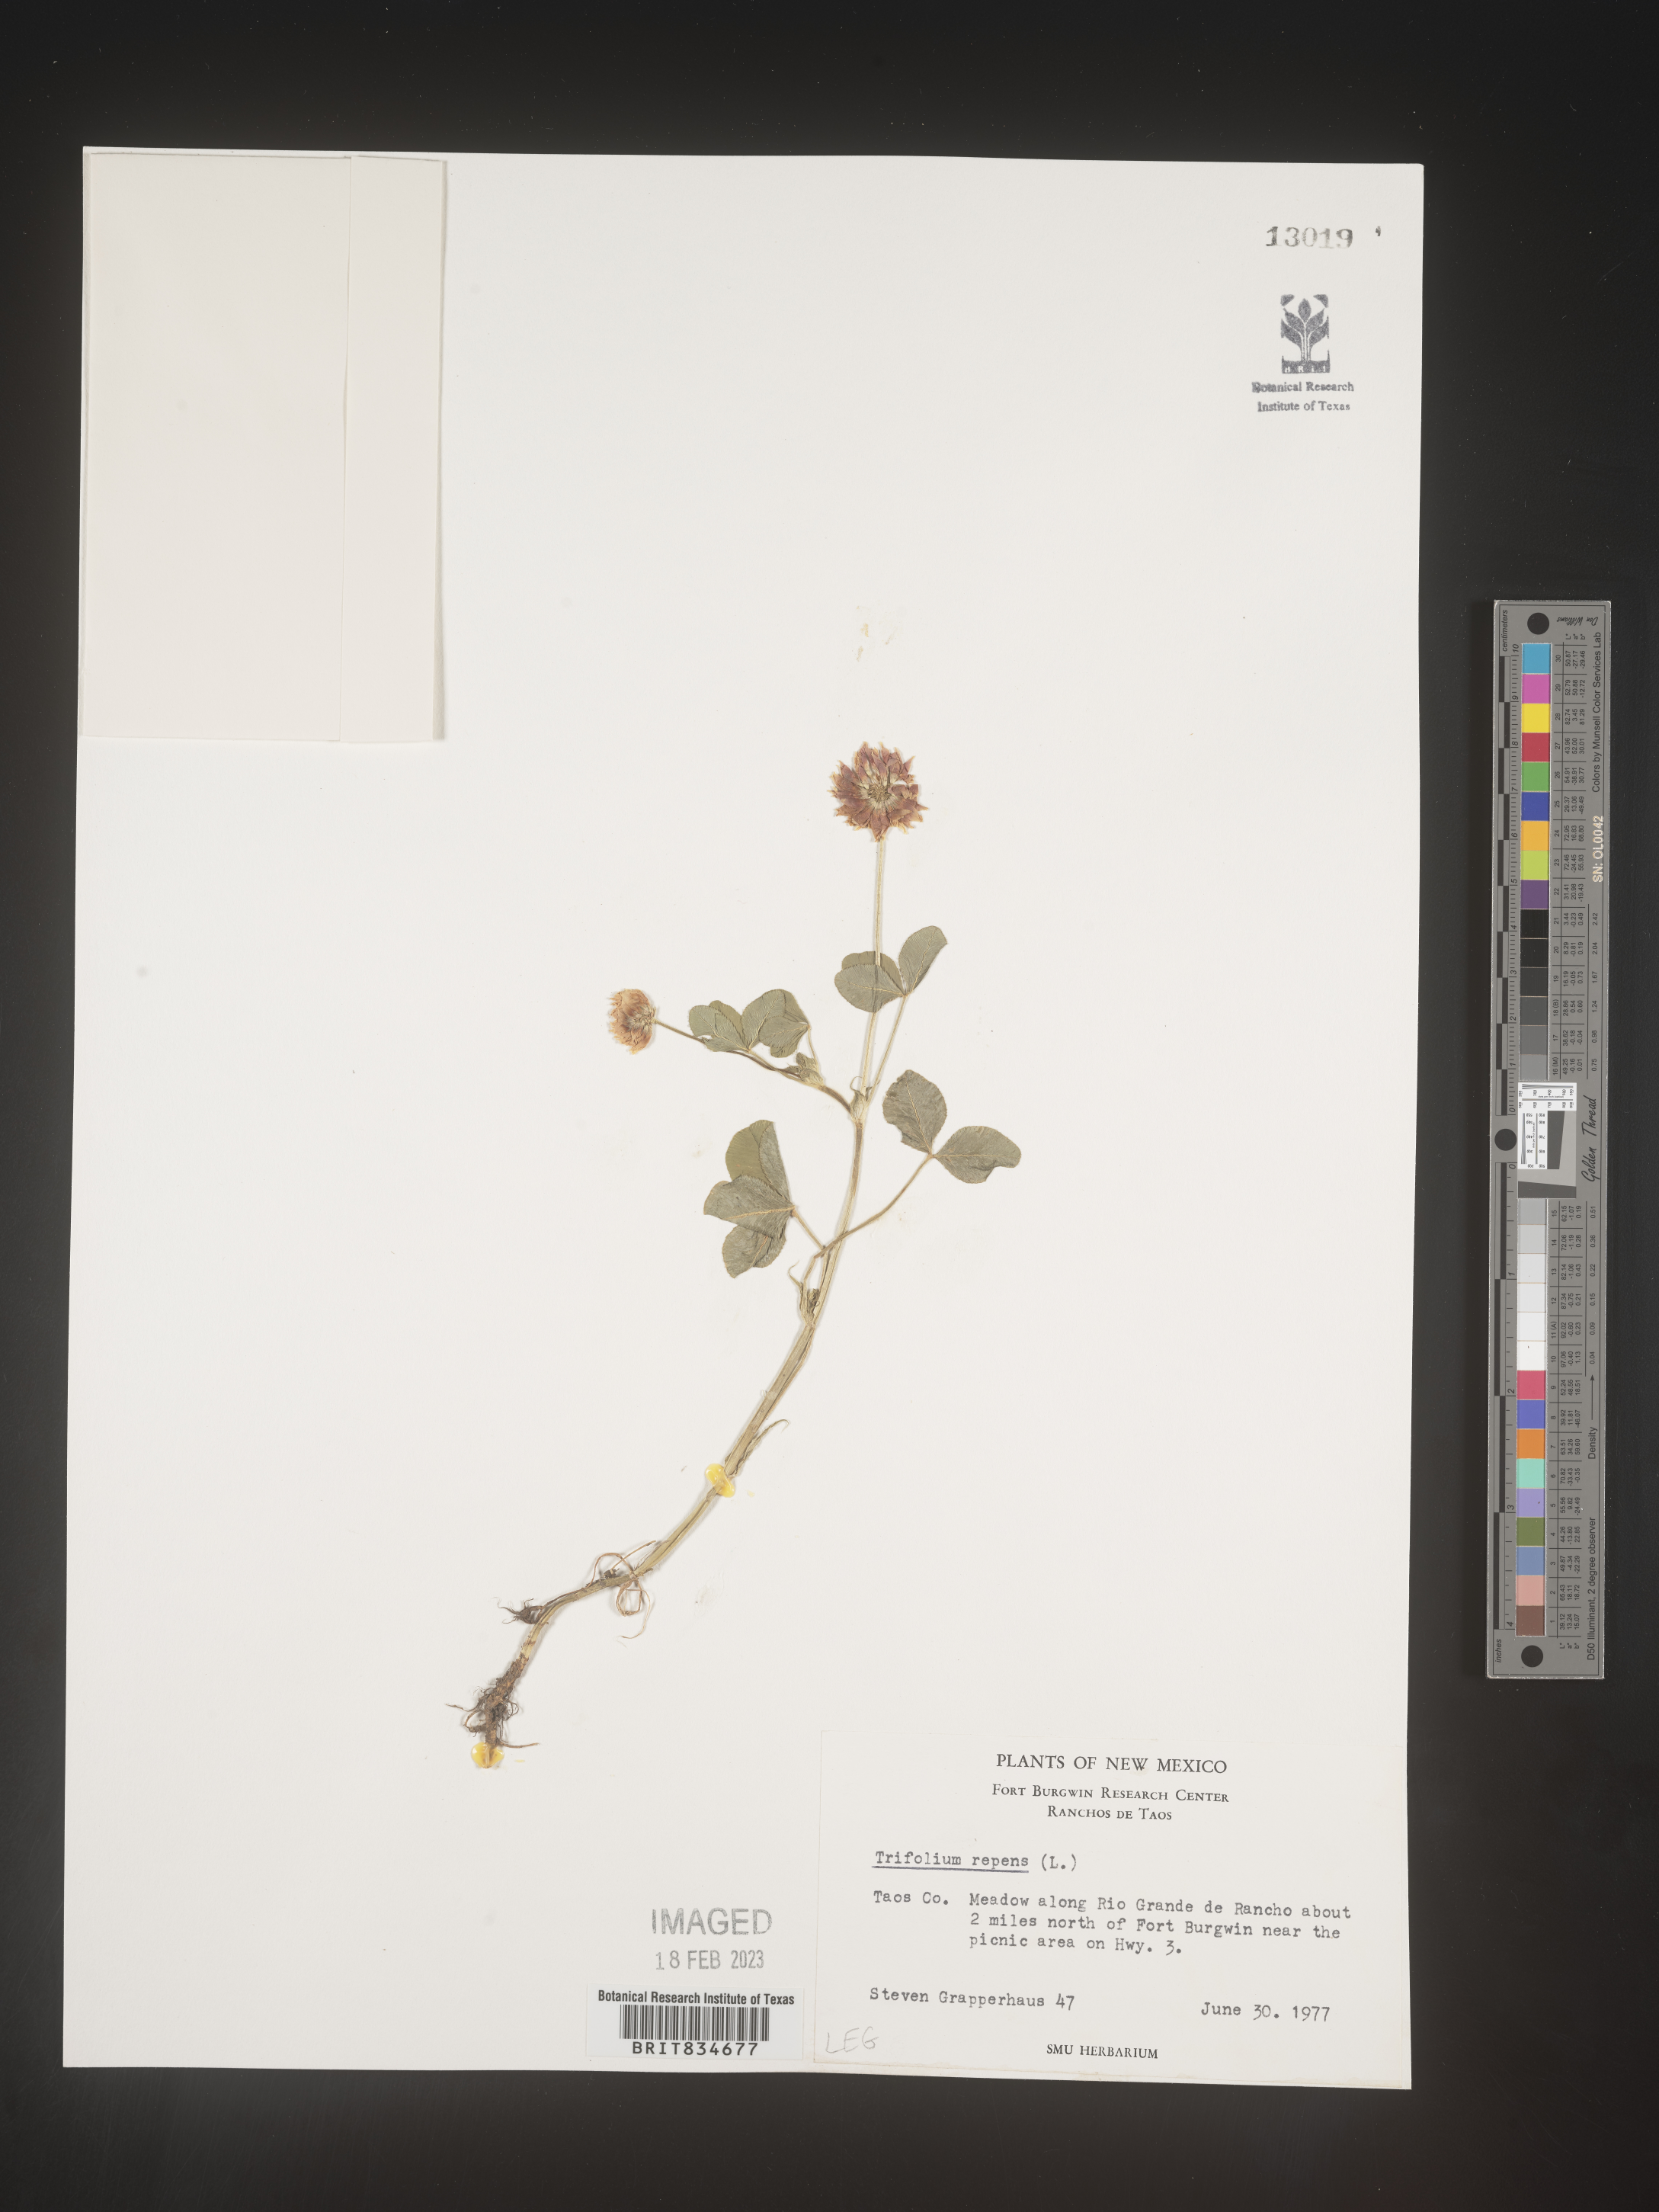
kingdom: Plantae
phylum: Tracheophyta
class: Magnoliopsida
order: Fabales
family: Fabaceae
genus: Trifolium
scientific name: Trifolium repens
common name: White clover
